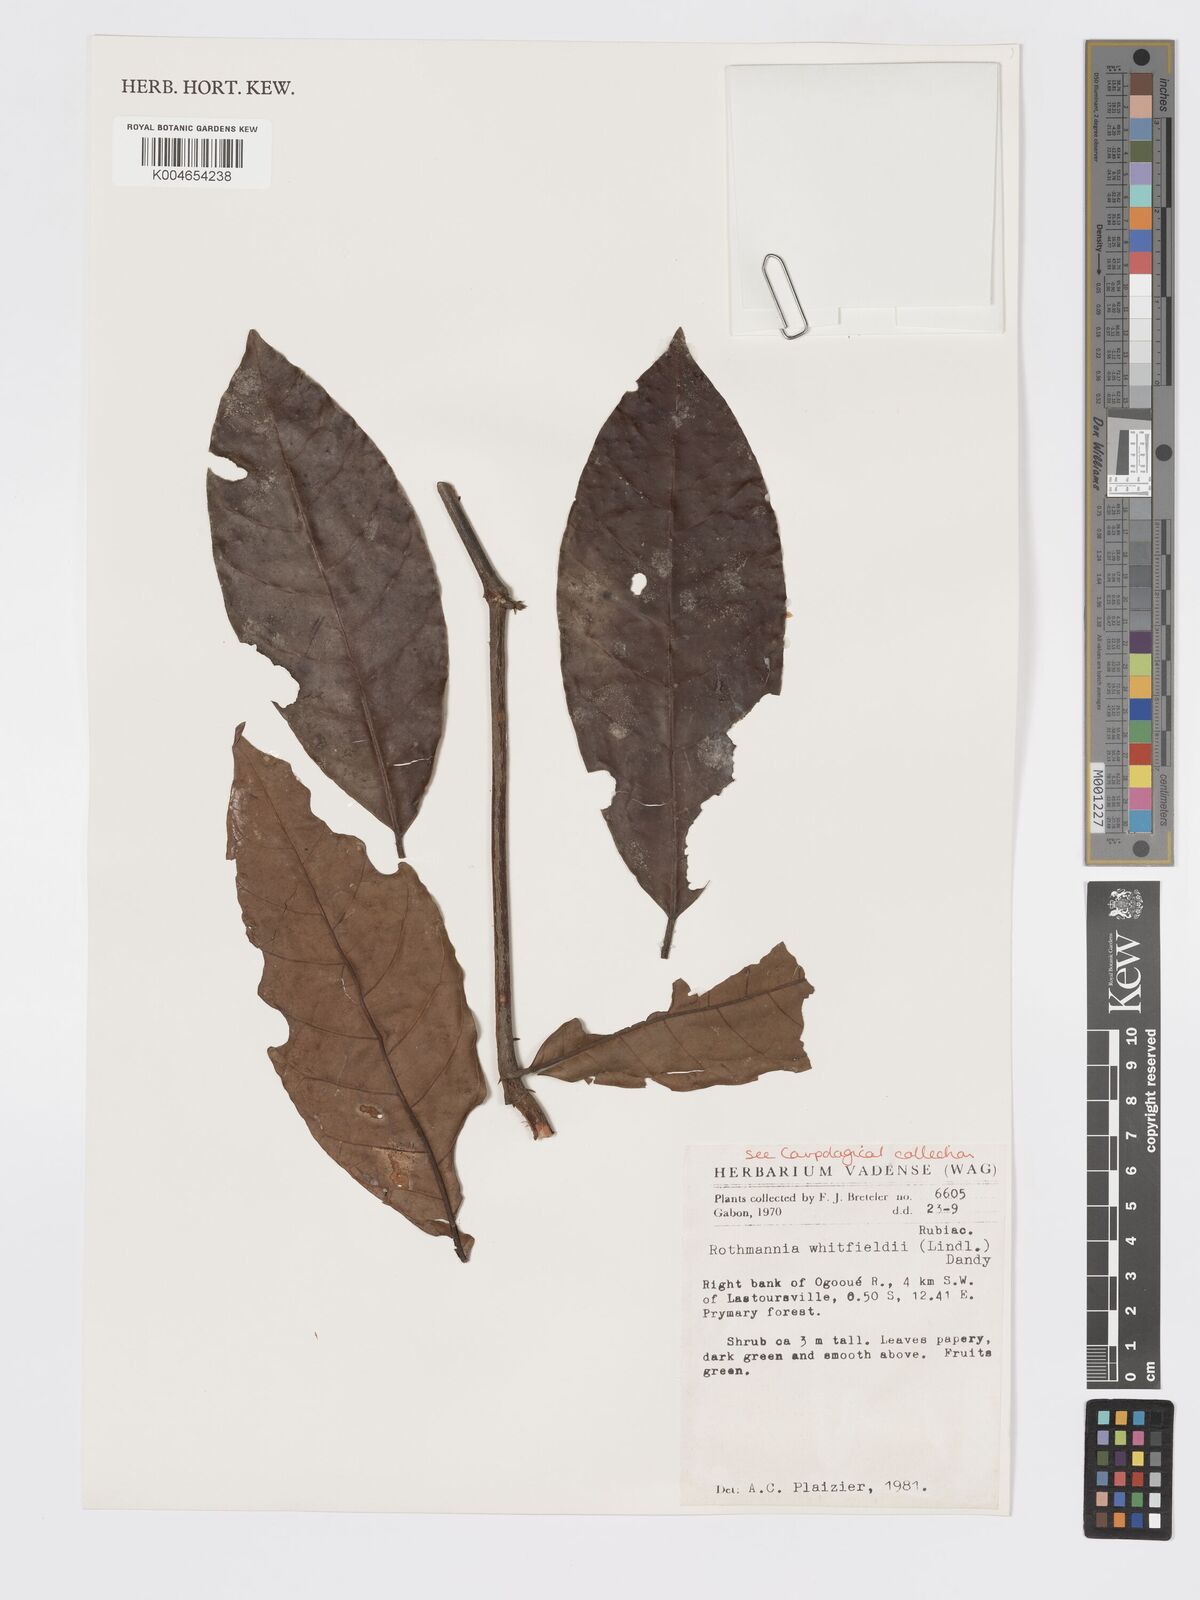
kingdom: Plantae
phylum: Tracheophyta
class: Magnoliopsida
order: Gentianales
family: Rubiaceae
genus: Rothmannia
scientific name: Rothmannia whitfieldii
